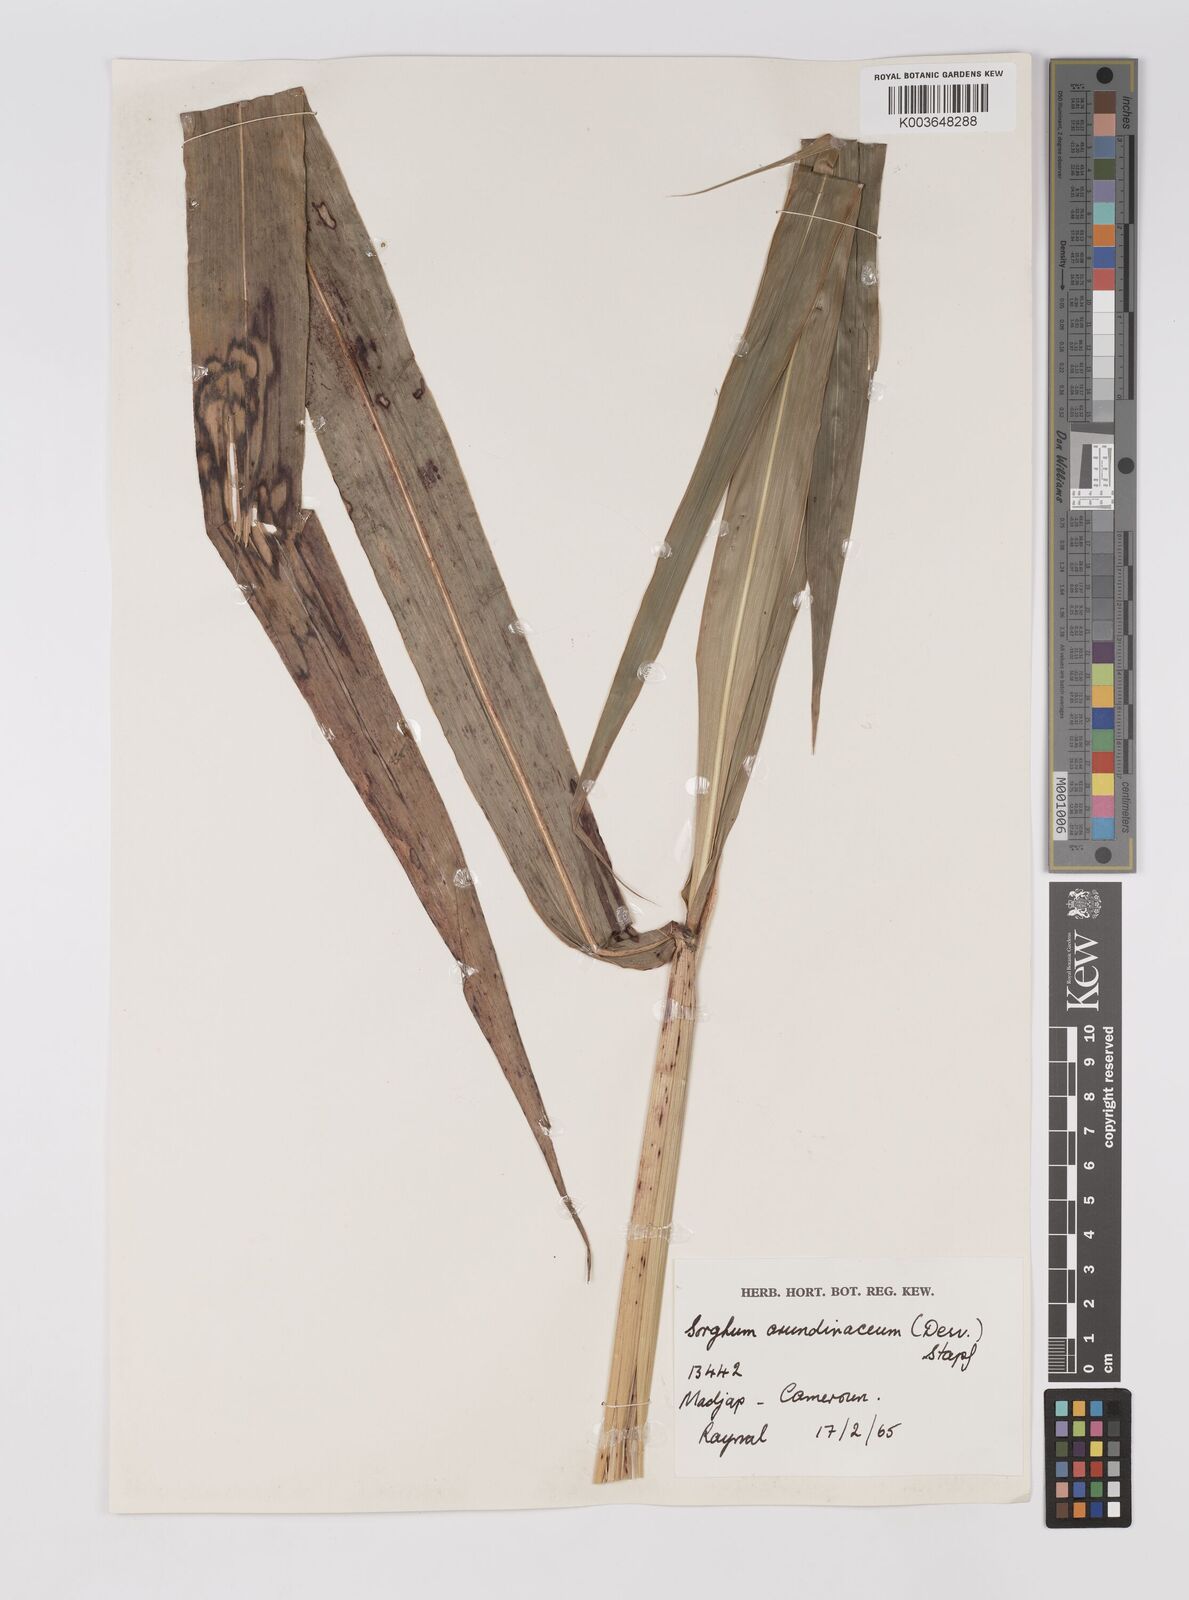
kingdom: Plantae
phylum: Tracheophyta
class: Liliopsida
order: Poales
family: Poaceae
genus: Sorghum
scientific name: Sorghum arundinaceum
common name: Sorghum
